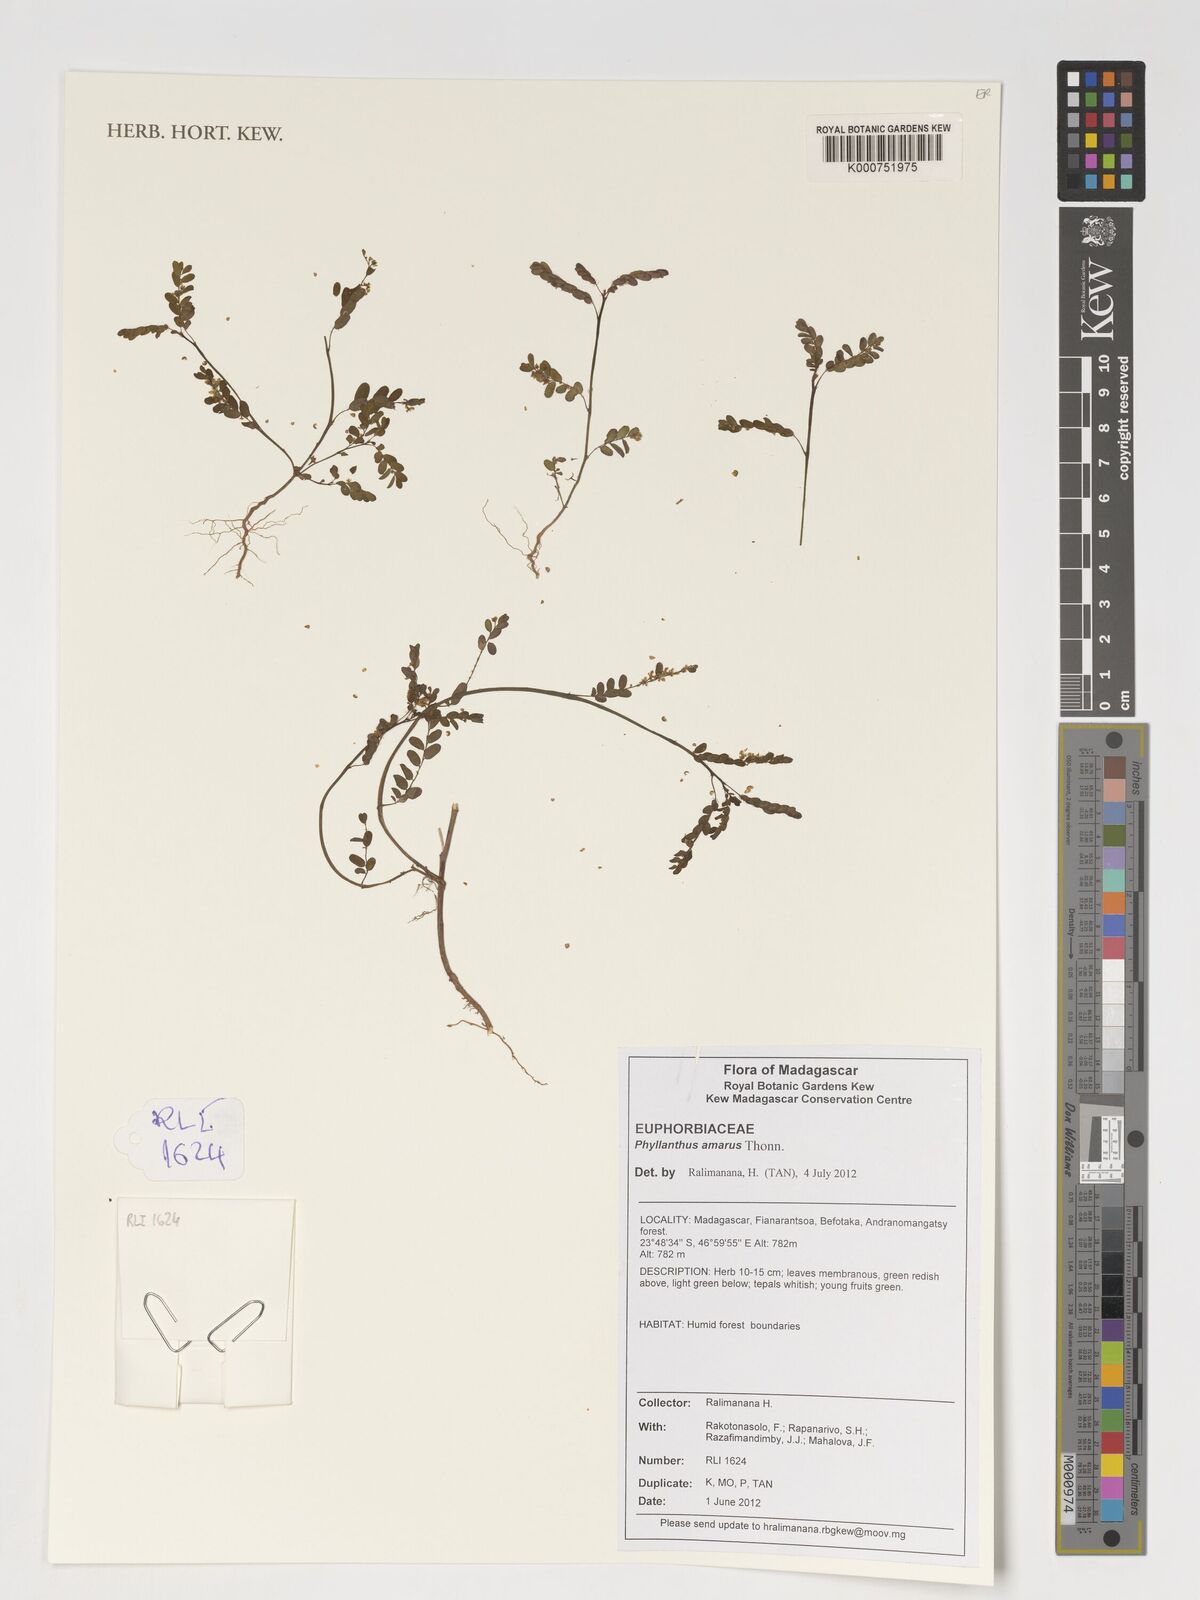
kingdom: Plantae
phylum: Tracheophyta
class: Magnoliopsida
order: Malpighiales
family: Phyllanthaceae
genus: Phyllanthus
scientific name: Phyllanthus amarus
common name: Carry me seed
